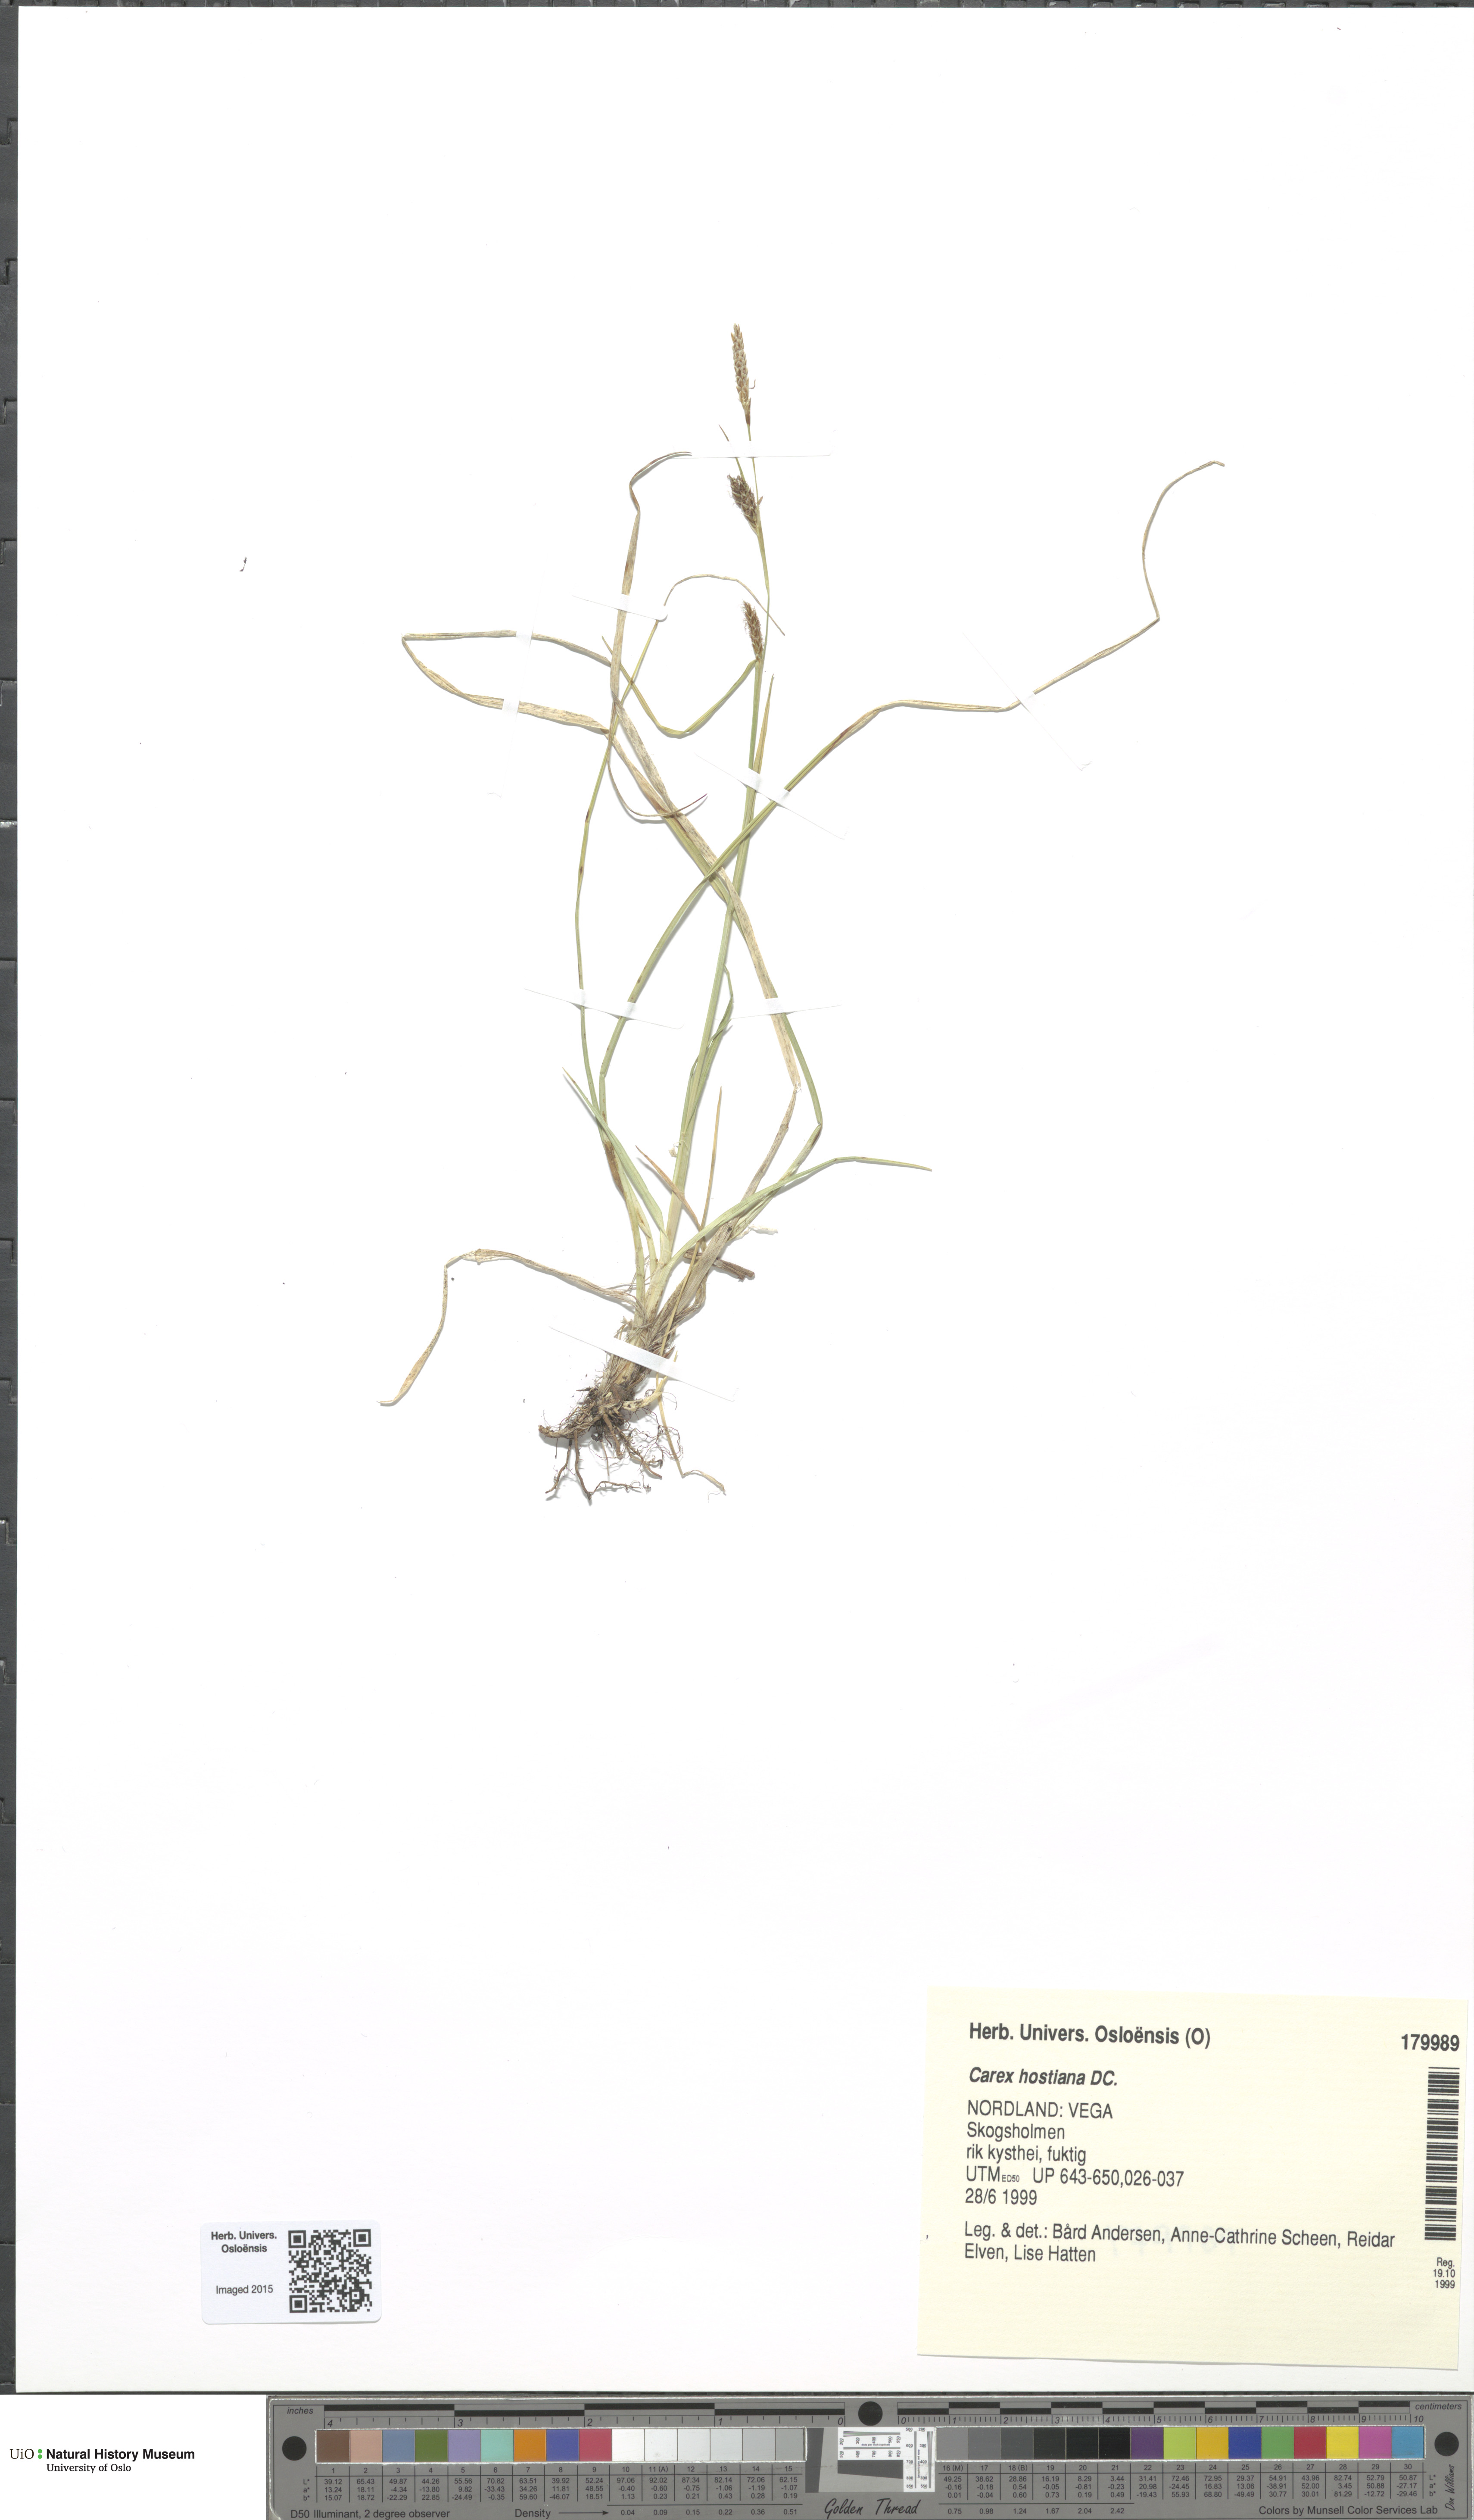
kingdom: Plantae
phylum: Tracheophyta
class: Liliopsida
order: Poales
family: Cyperaceae
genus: Carex
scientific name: Carex hostiana
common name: Tawny sedge
